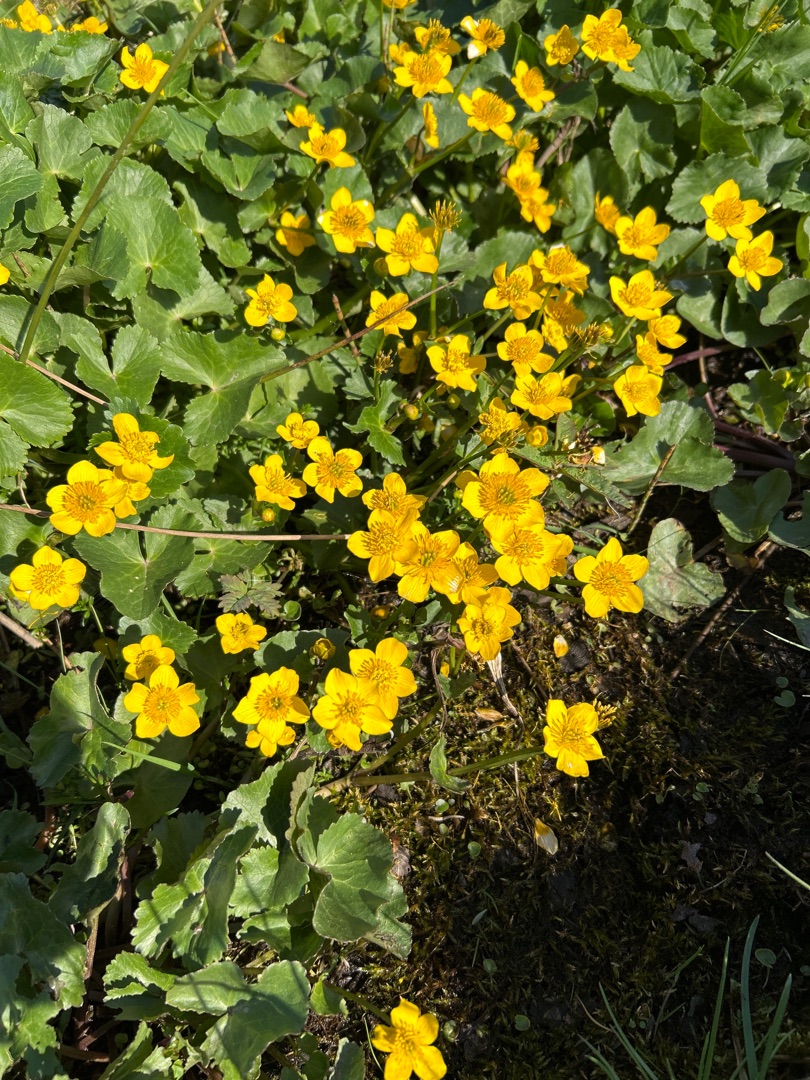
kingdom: Plantae
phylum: Tracheophyta
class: Magnoliopsida
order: Ranunculales
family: Ranunculaceae
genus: Caltha
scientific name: Caltha palustris
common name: Eng-kabbeleje
